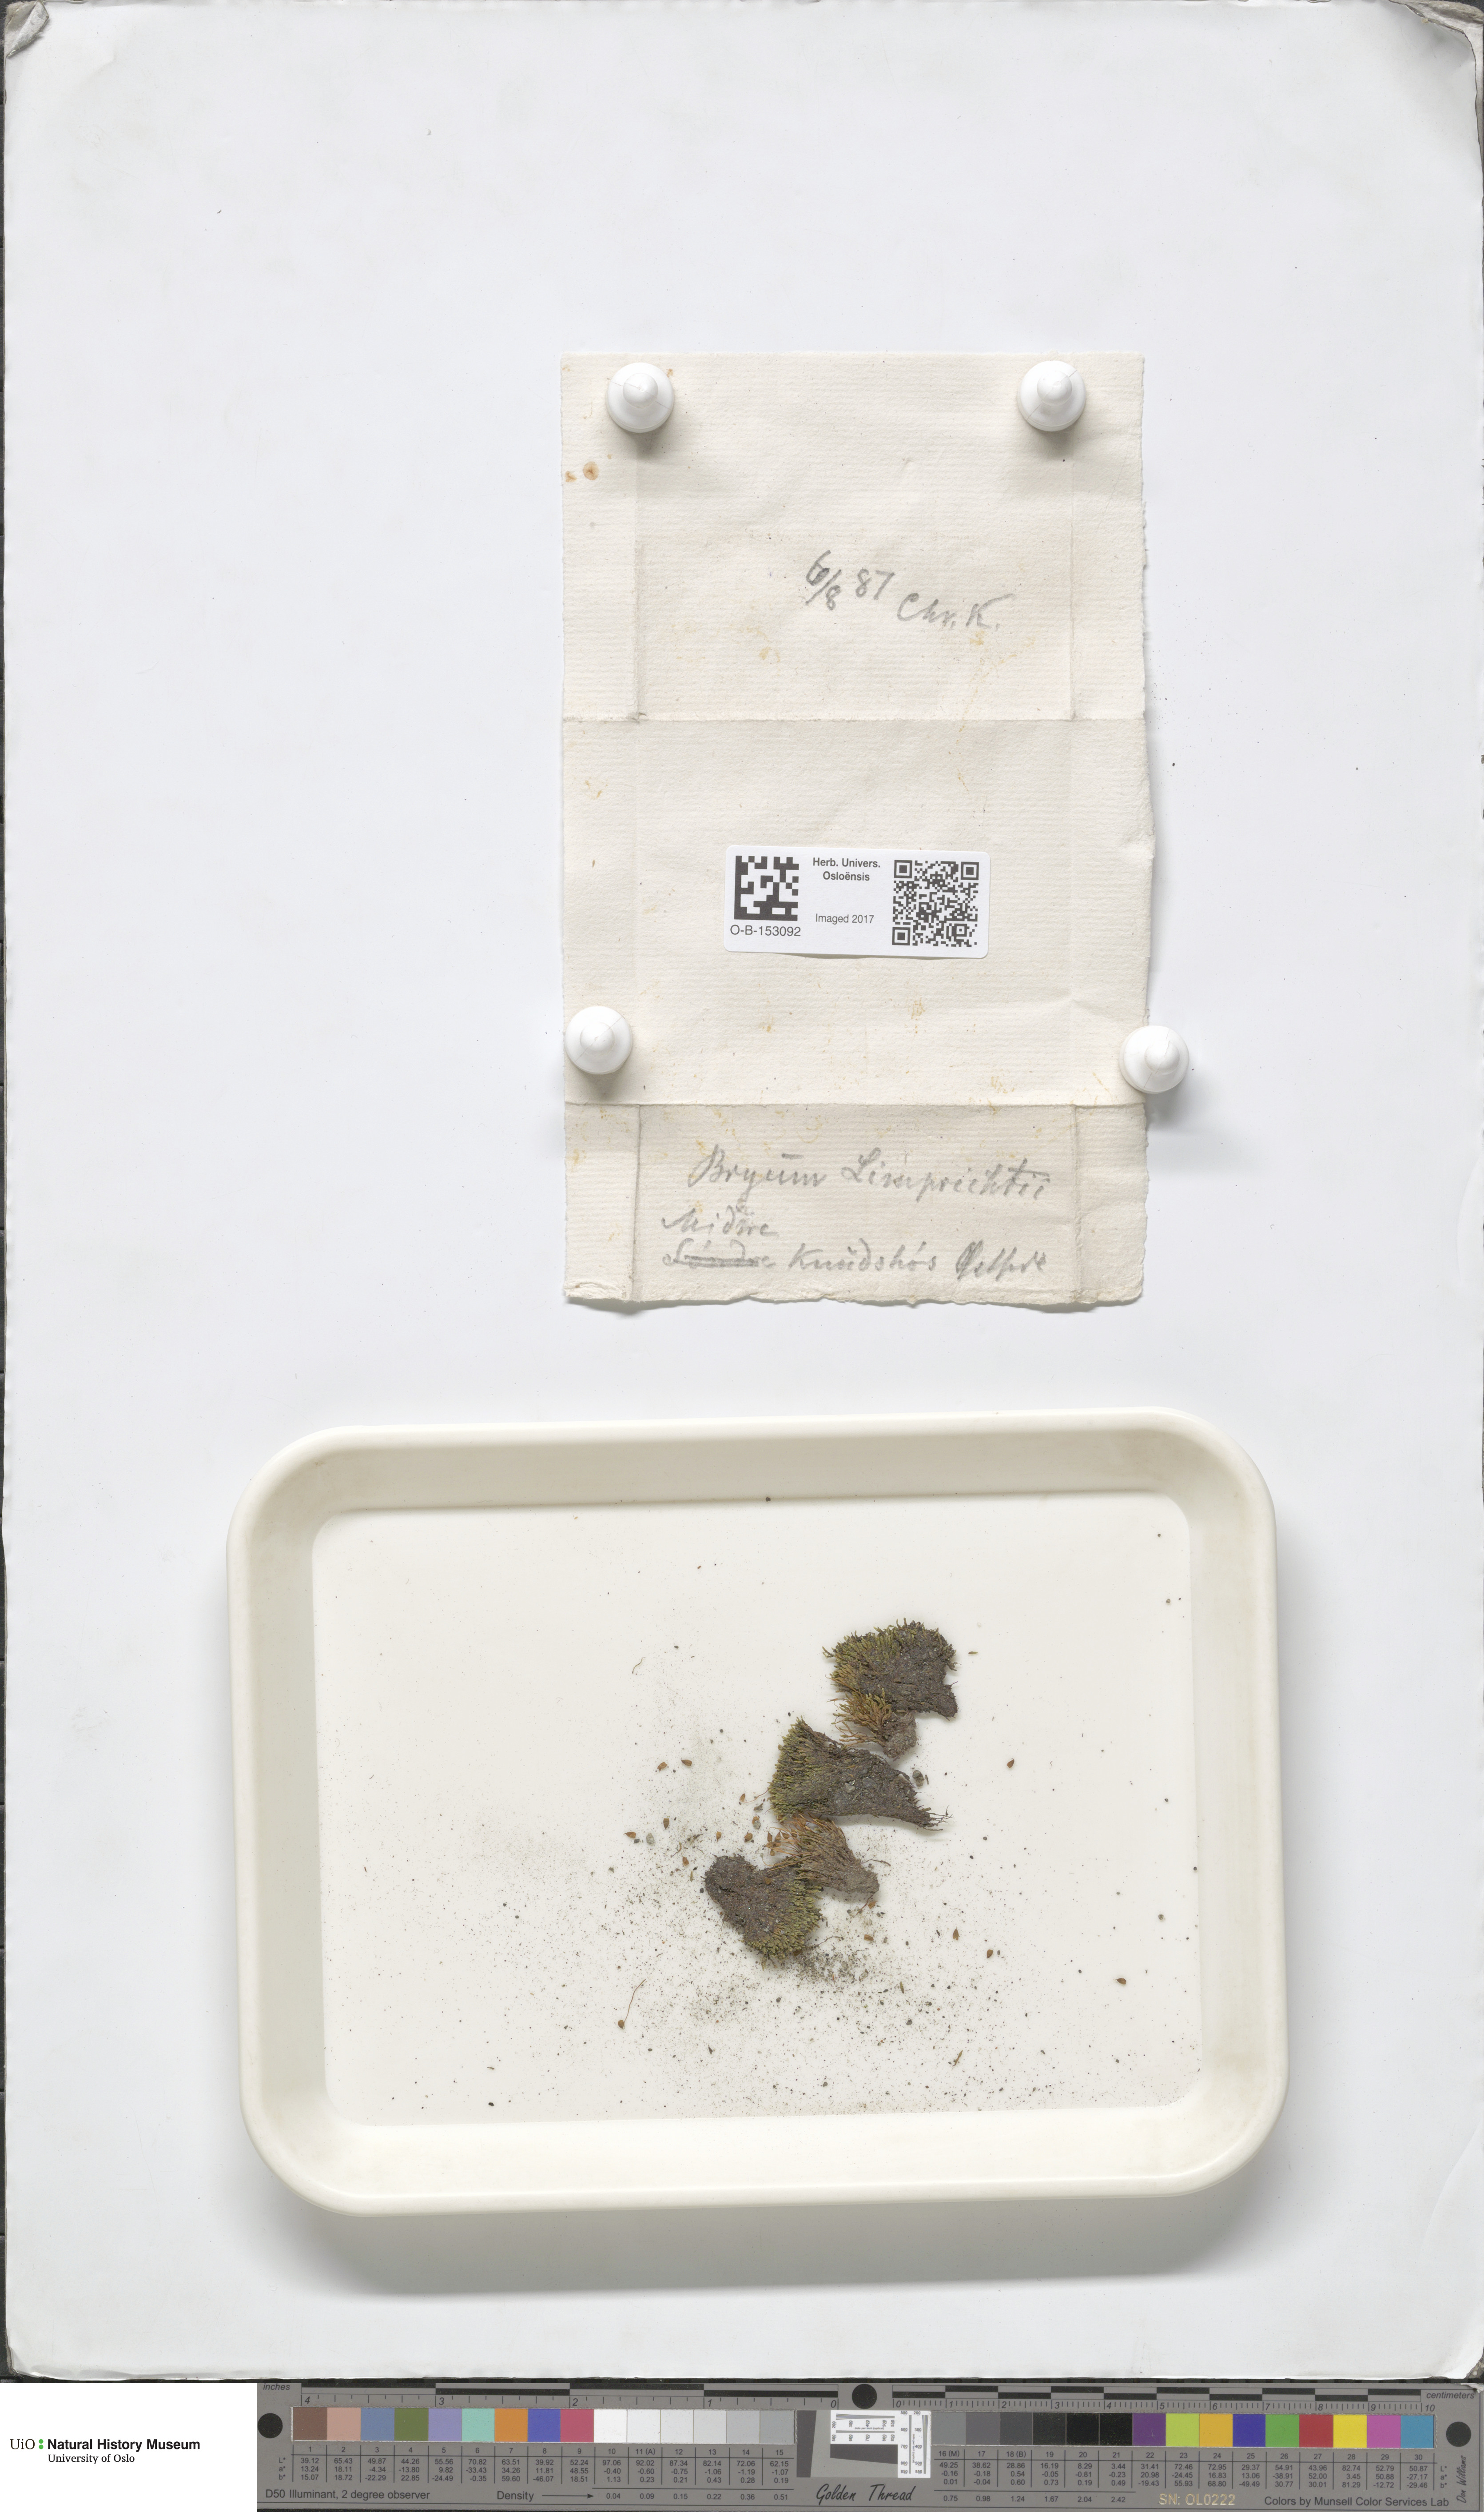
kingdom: Plantae
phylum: Bryophyta
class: Bryopsida
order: Bryales
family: Bryaceae
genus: Ptychostomum
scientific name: Ptychostomum inclinatum
